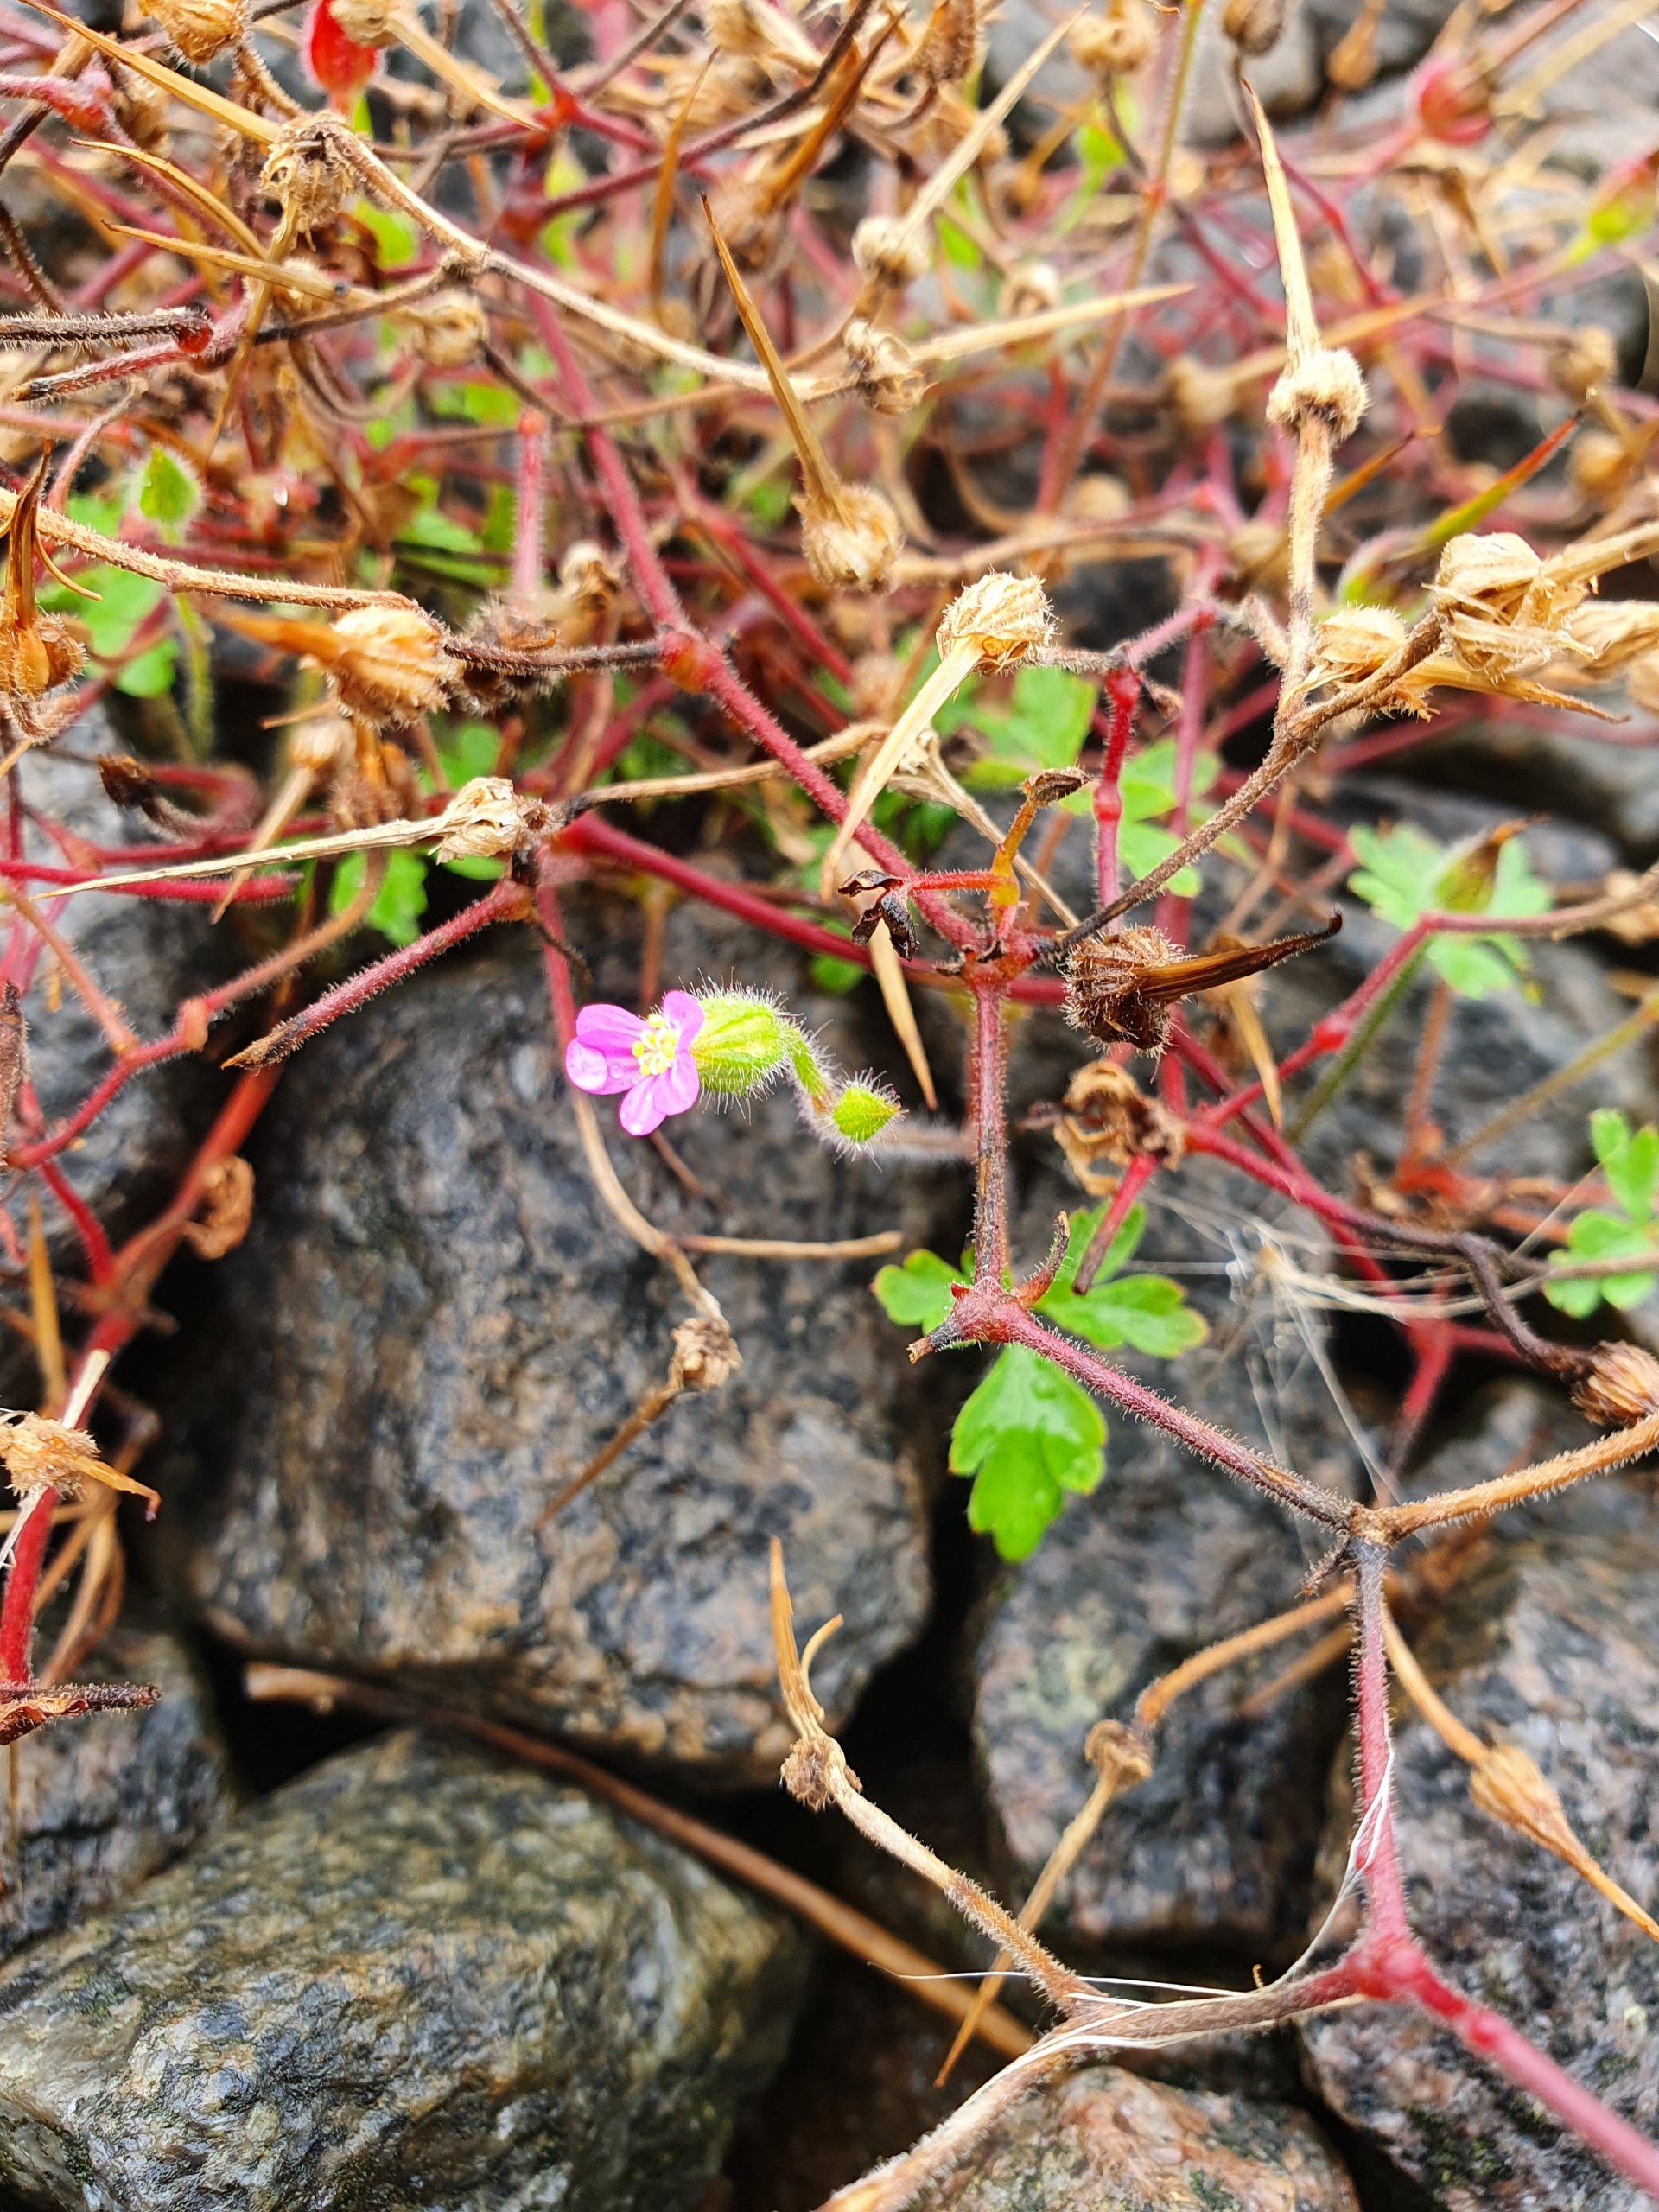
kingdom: Plantae
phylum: Tracheophyta
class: Magnoliopsida
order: Geraniales
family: Geraniaceae
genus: Geranium
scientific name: Geranium purpureum
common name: Purpur-storkenæb
